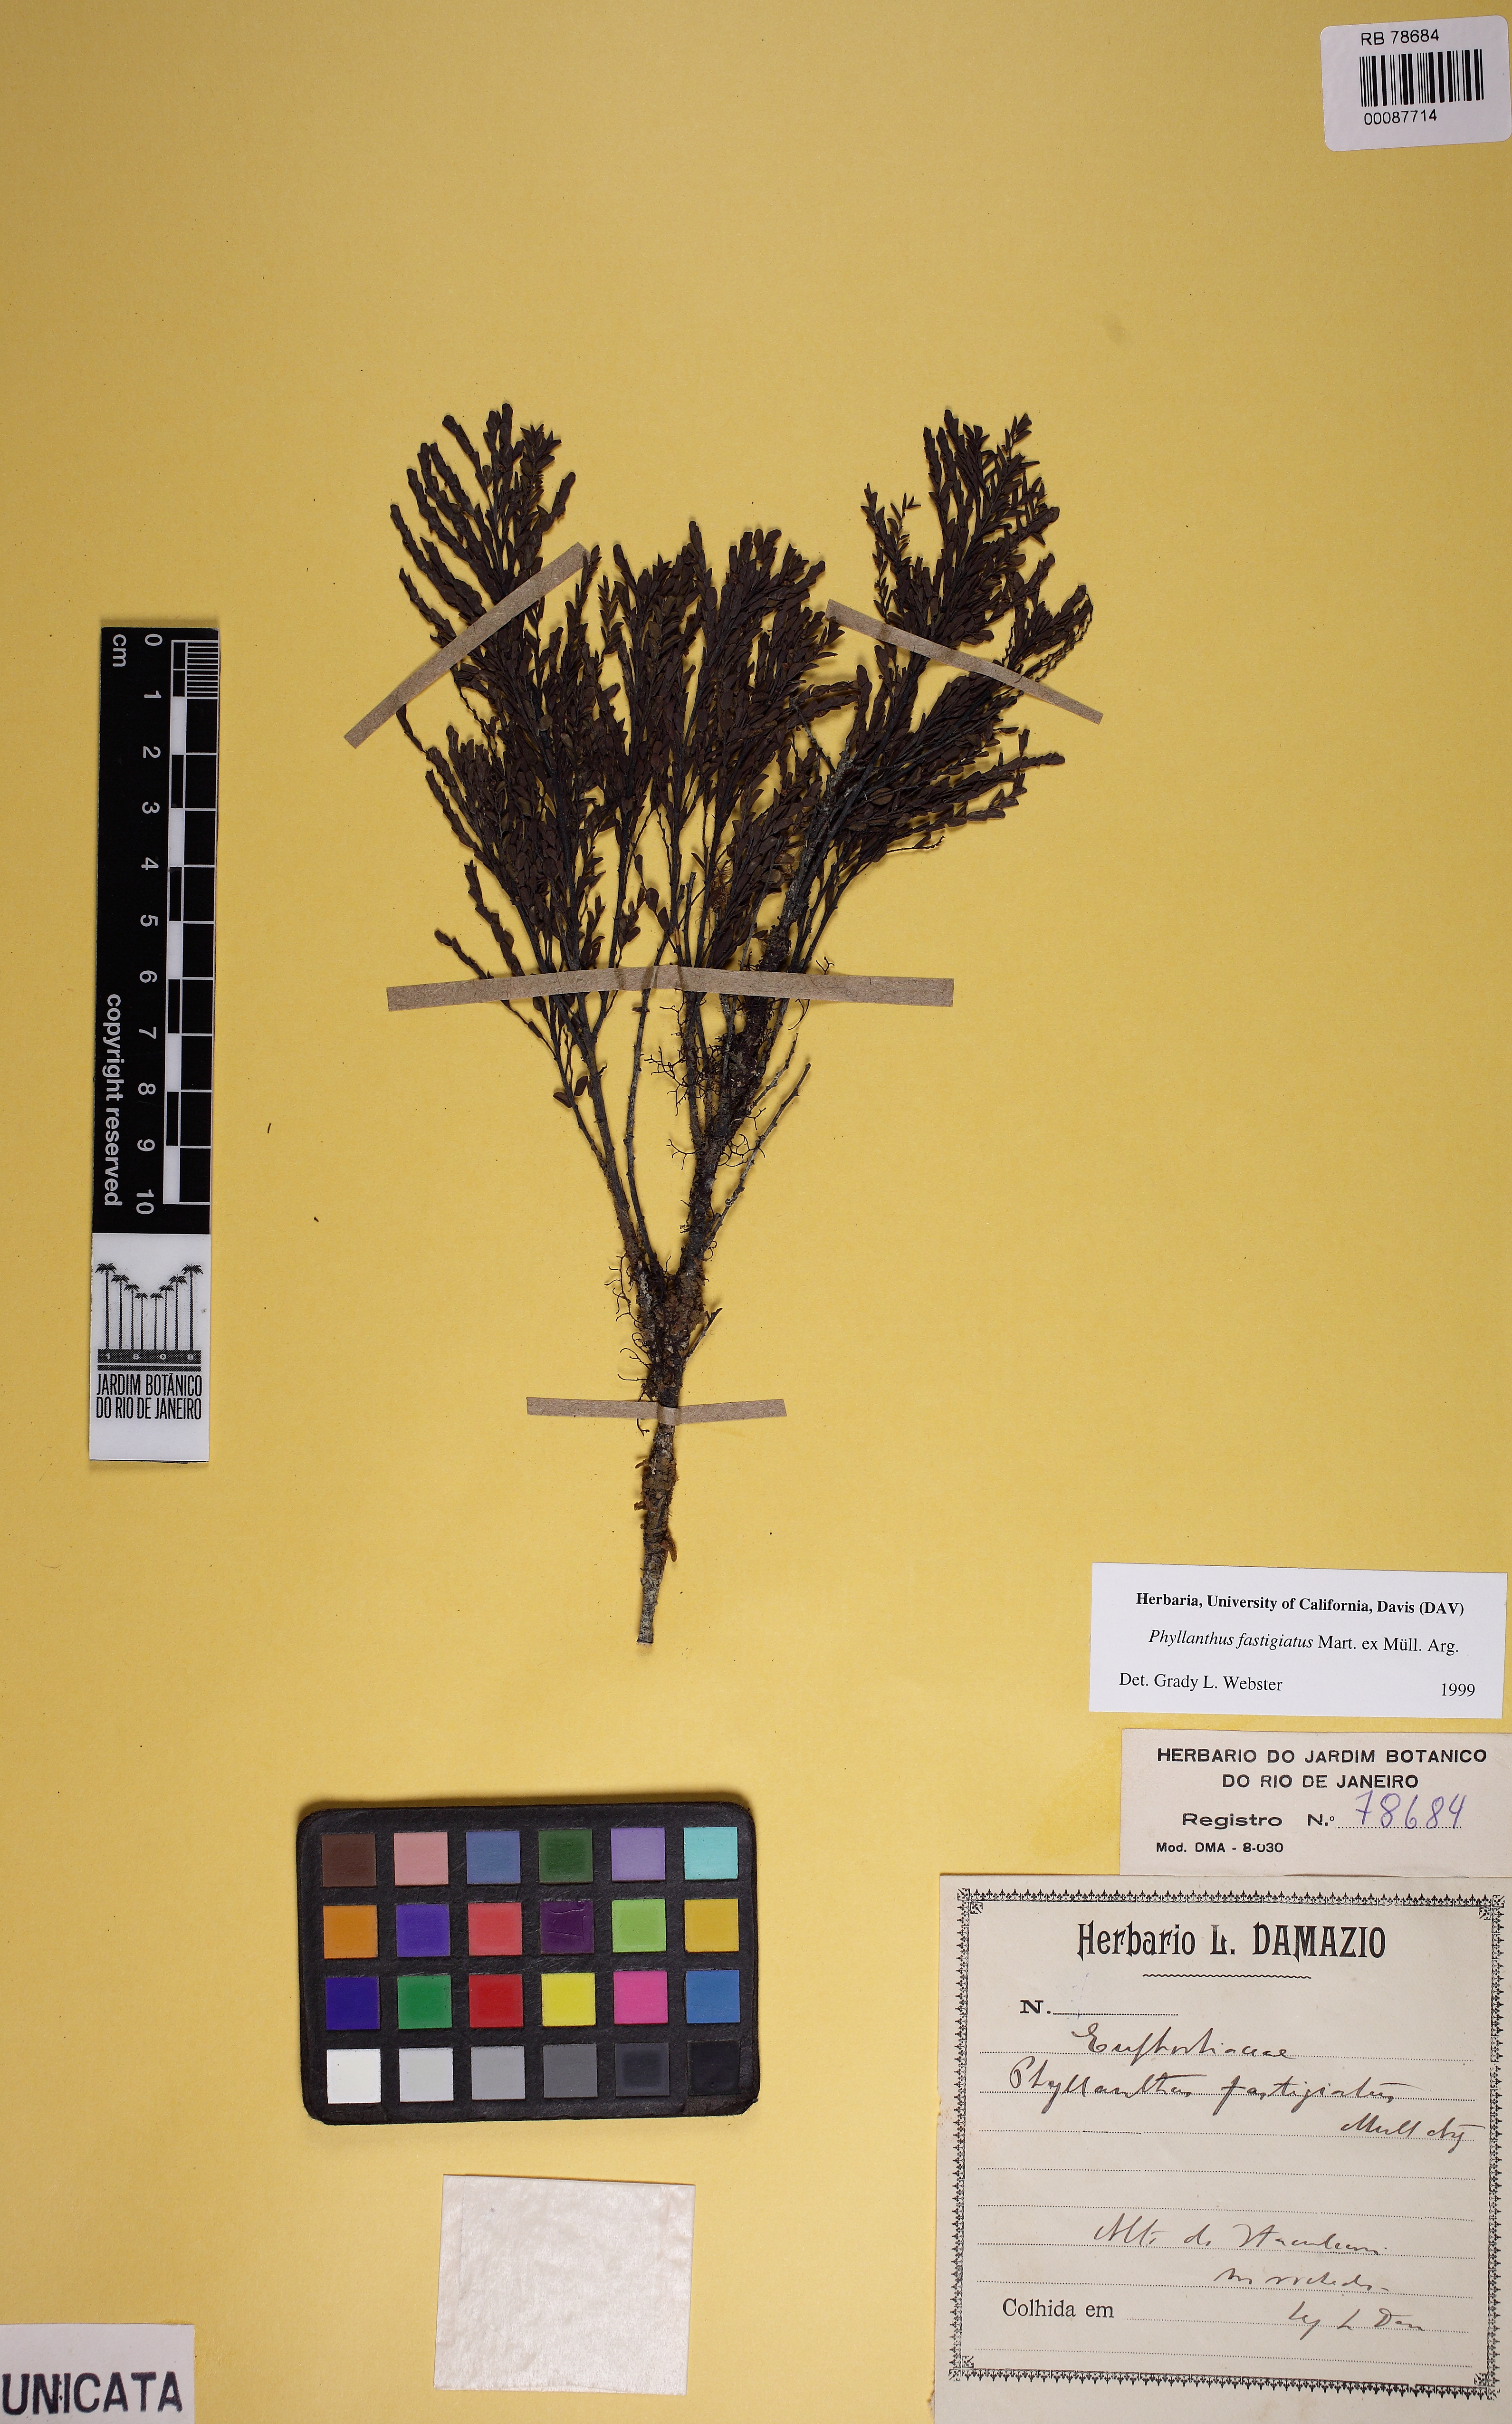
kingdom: Plantae
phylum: Tracheophyta
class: Magnoliopsida
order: Malpighiales
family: Phyllanthaceae
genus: Phyllanthus
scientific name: Phyllanthus fastigiatus
